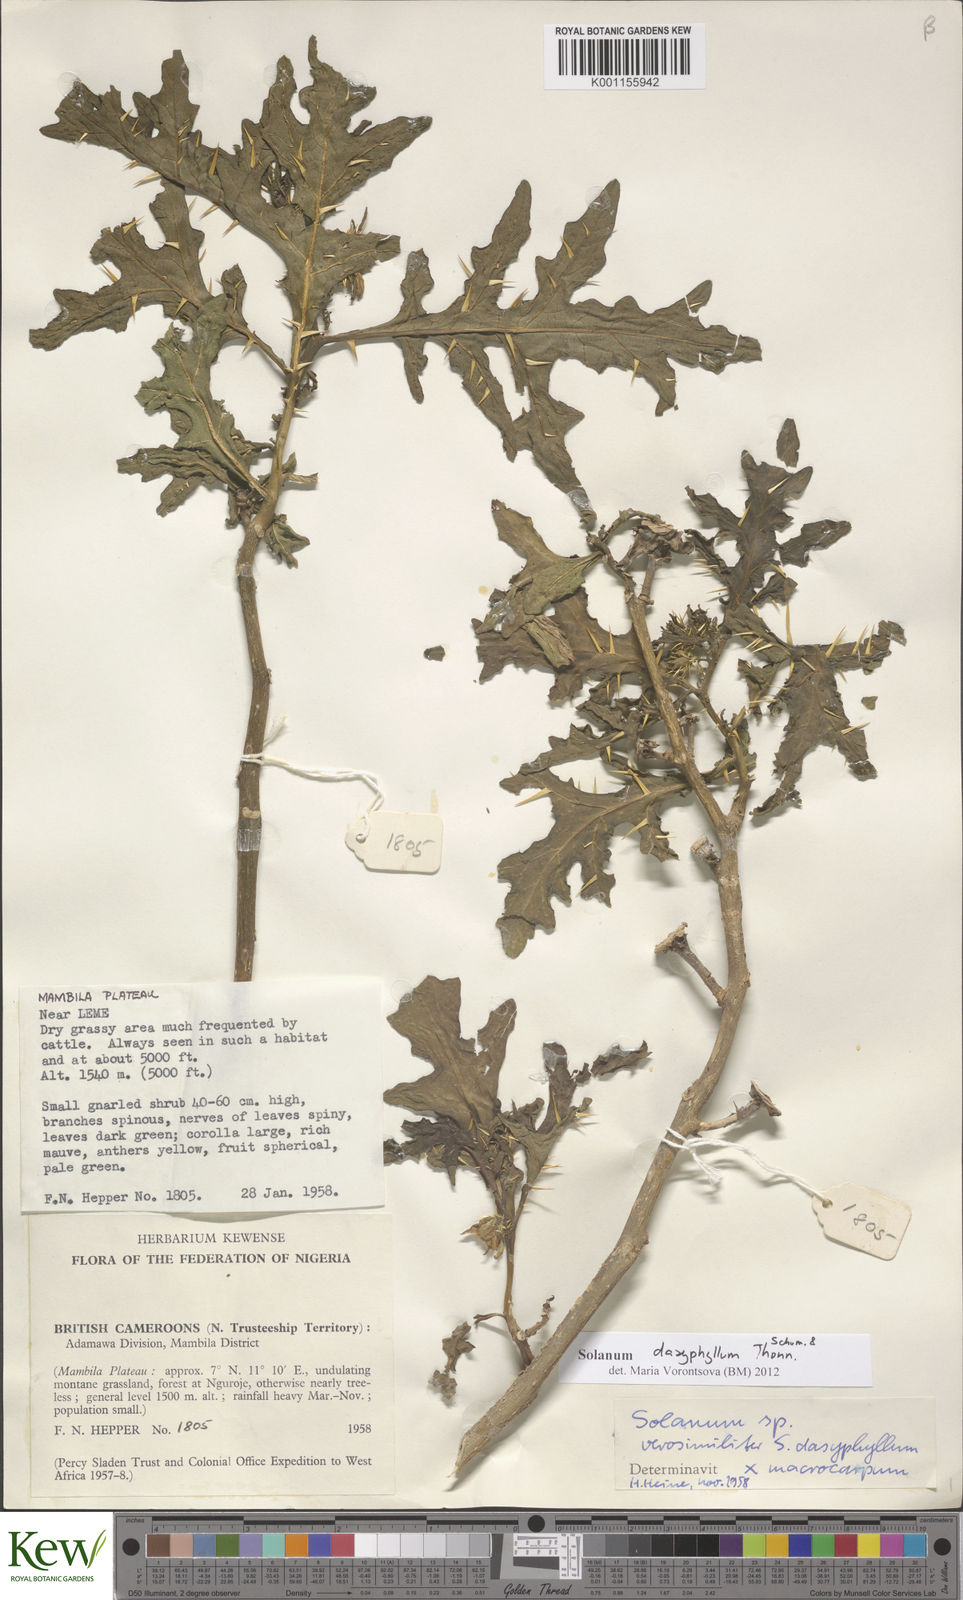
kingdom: Plantae
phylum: Tracheophyta
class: Magnoliopsida
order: Solanales
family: Solanaceae
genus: Solanum
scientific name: Solanum dasyphyllum
